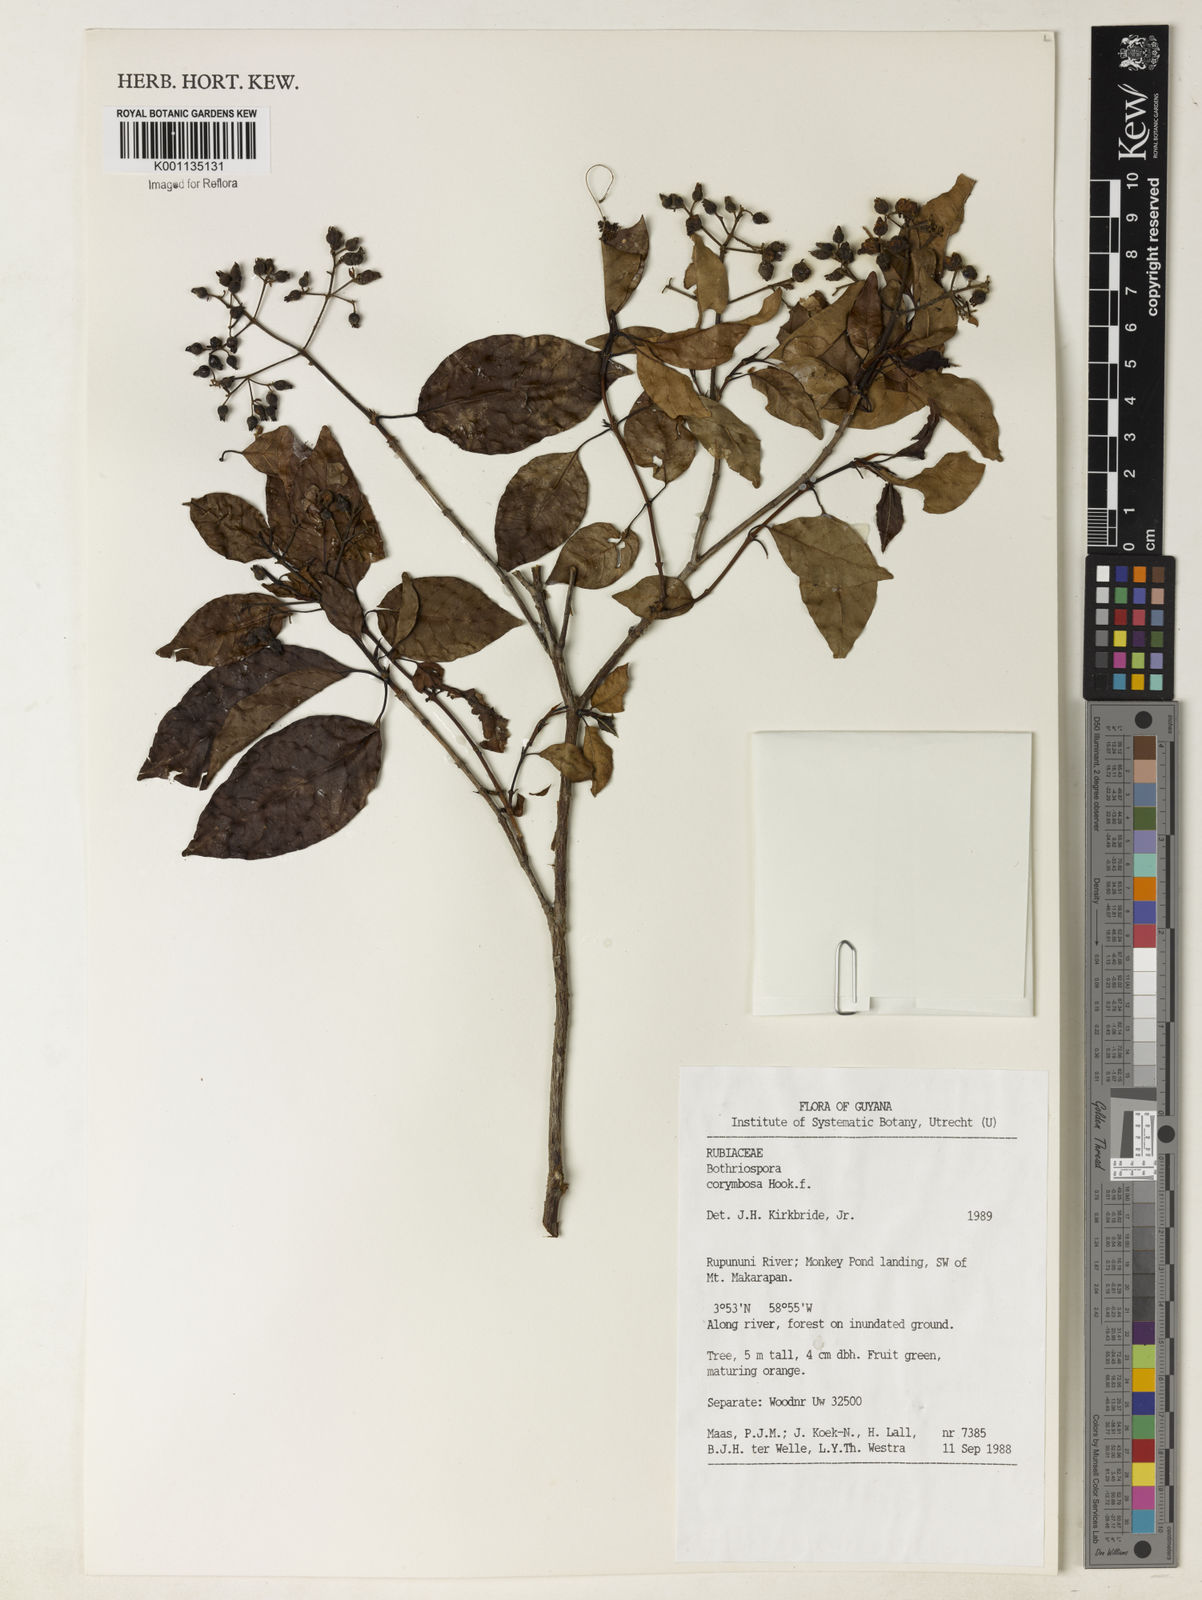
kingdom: Plantae
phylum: Tracheophyta
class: Magnoliopsida
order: Gentianales
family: Rubiaceae
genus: Bothriospora
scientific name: Bothriospora corymbosa
